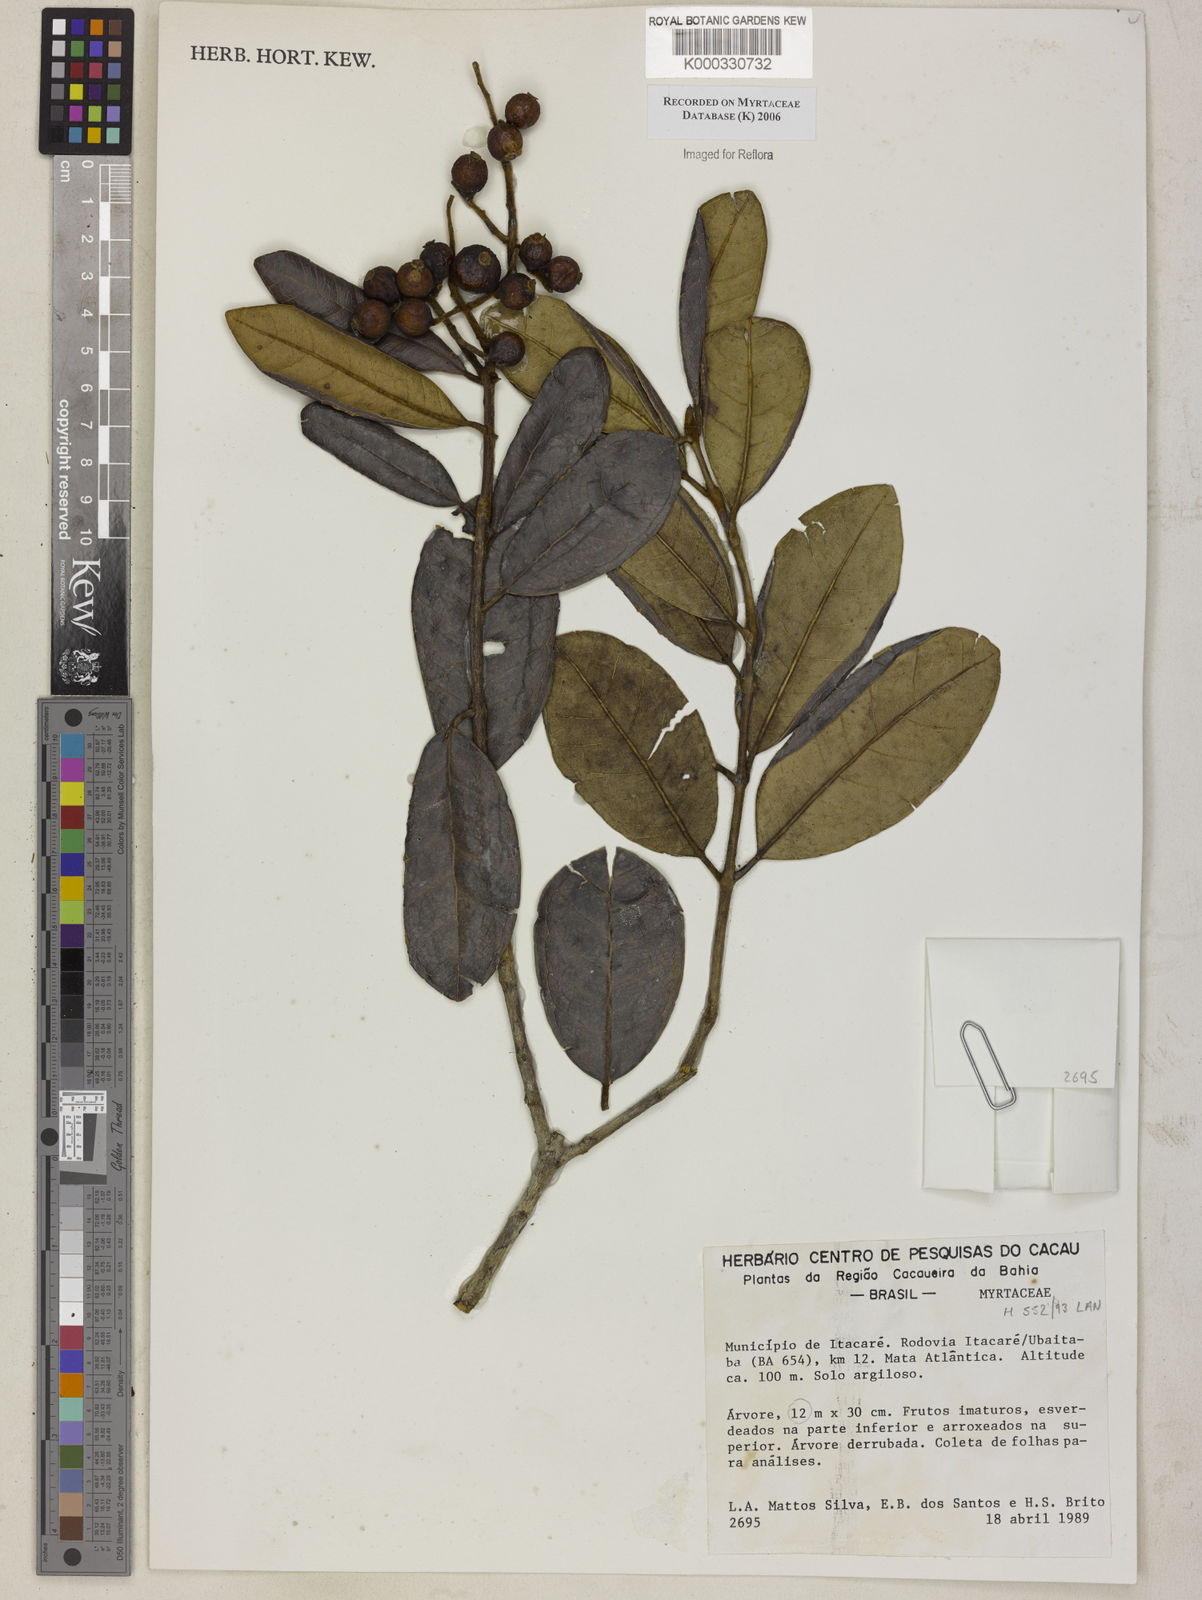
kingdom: Plantae
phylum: Tracheophyta
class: Magnoliopsida
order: Myrtales
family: Myrtaceae
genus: Myrcia
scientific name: Myrcia
